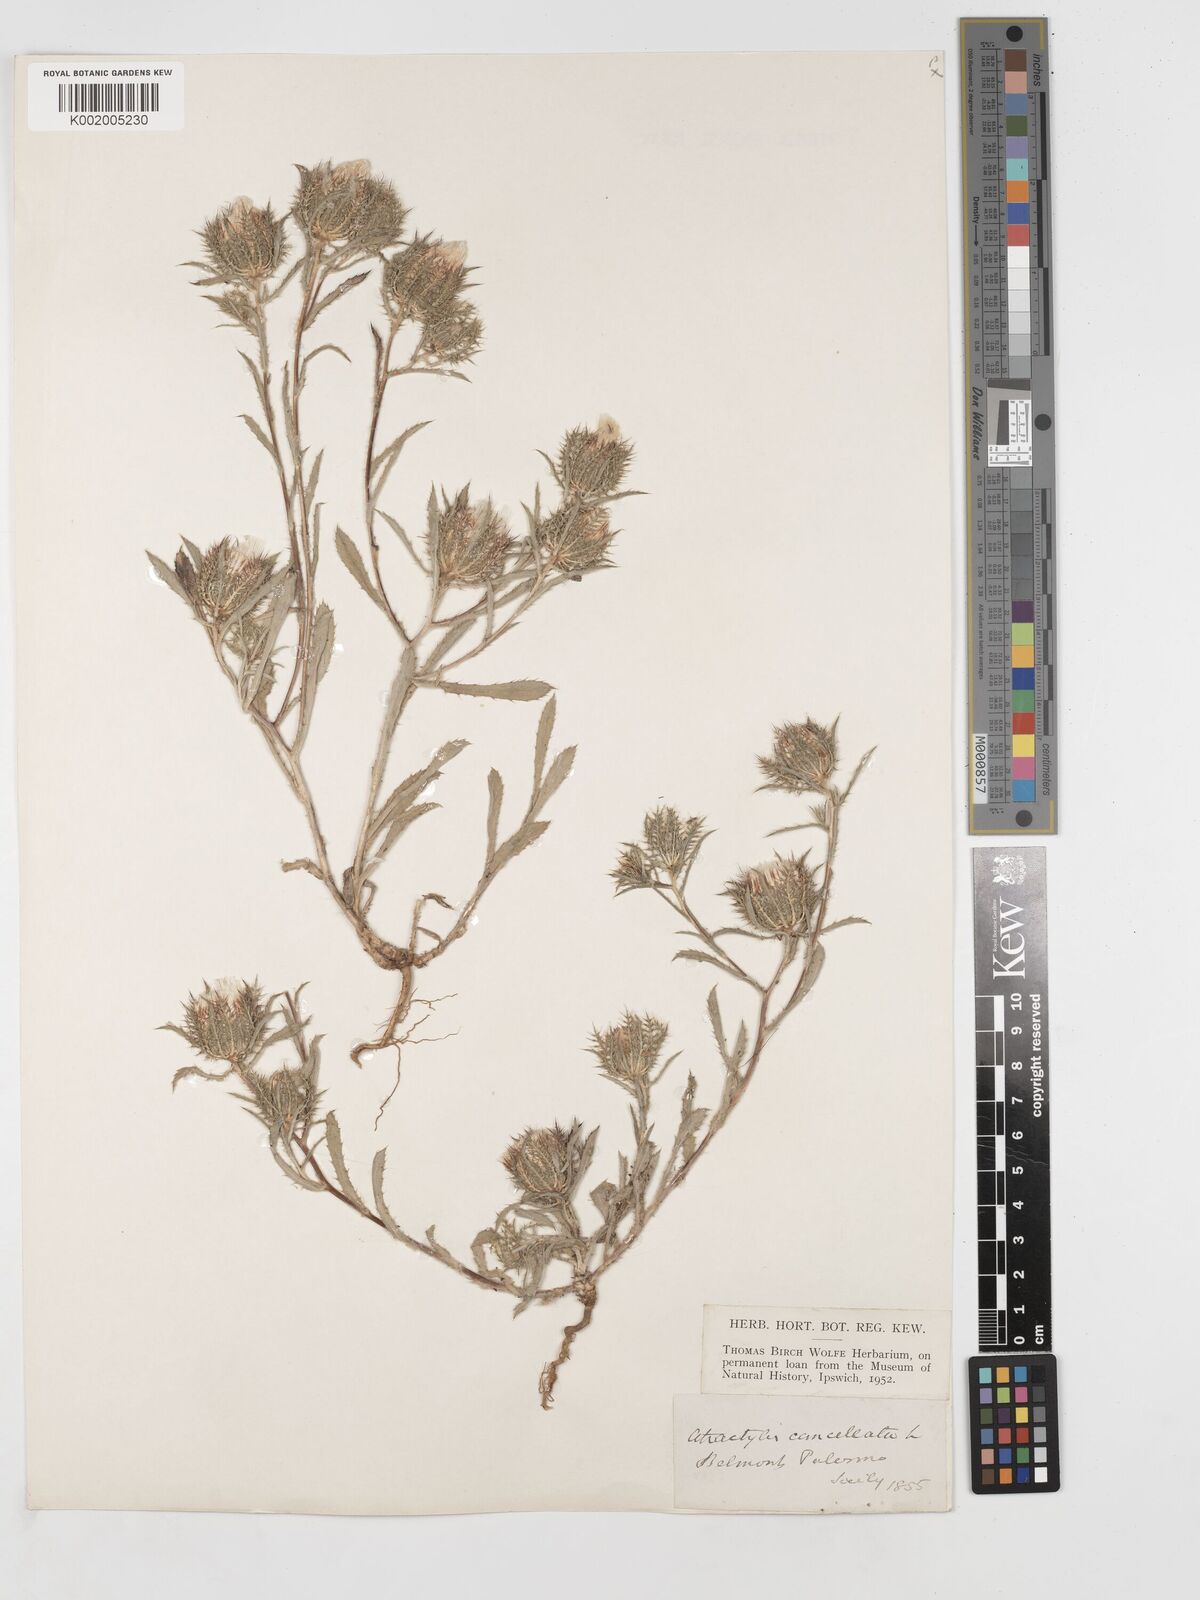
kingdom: Plantae
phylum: Tracheophyta
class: Magnoliopsida
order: Asterales
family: Asteraceae
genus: Atractylis
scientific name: Atractylis cancellata
